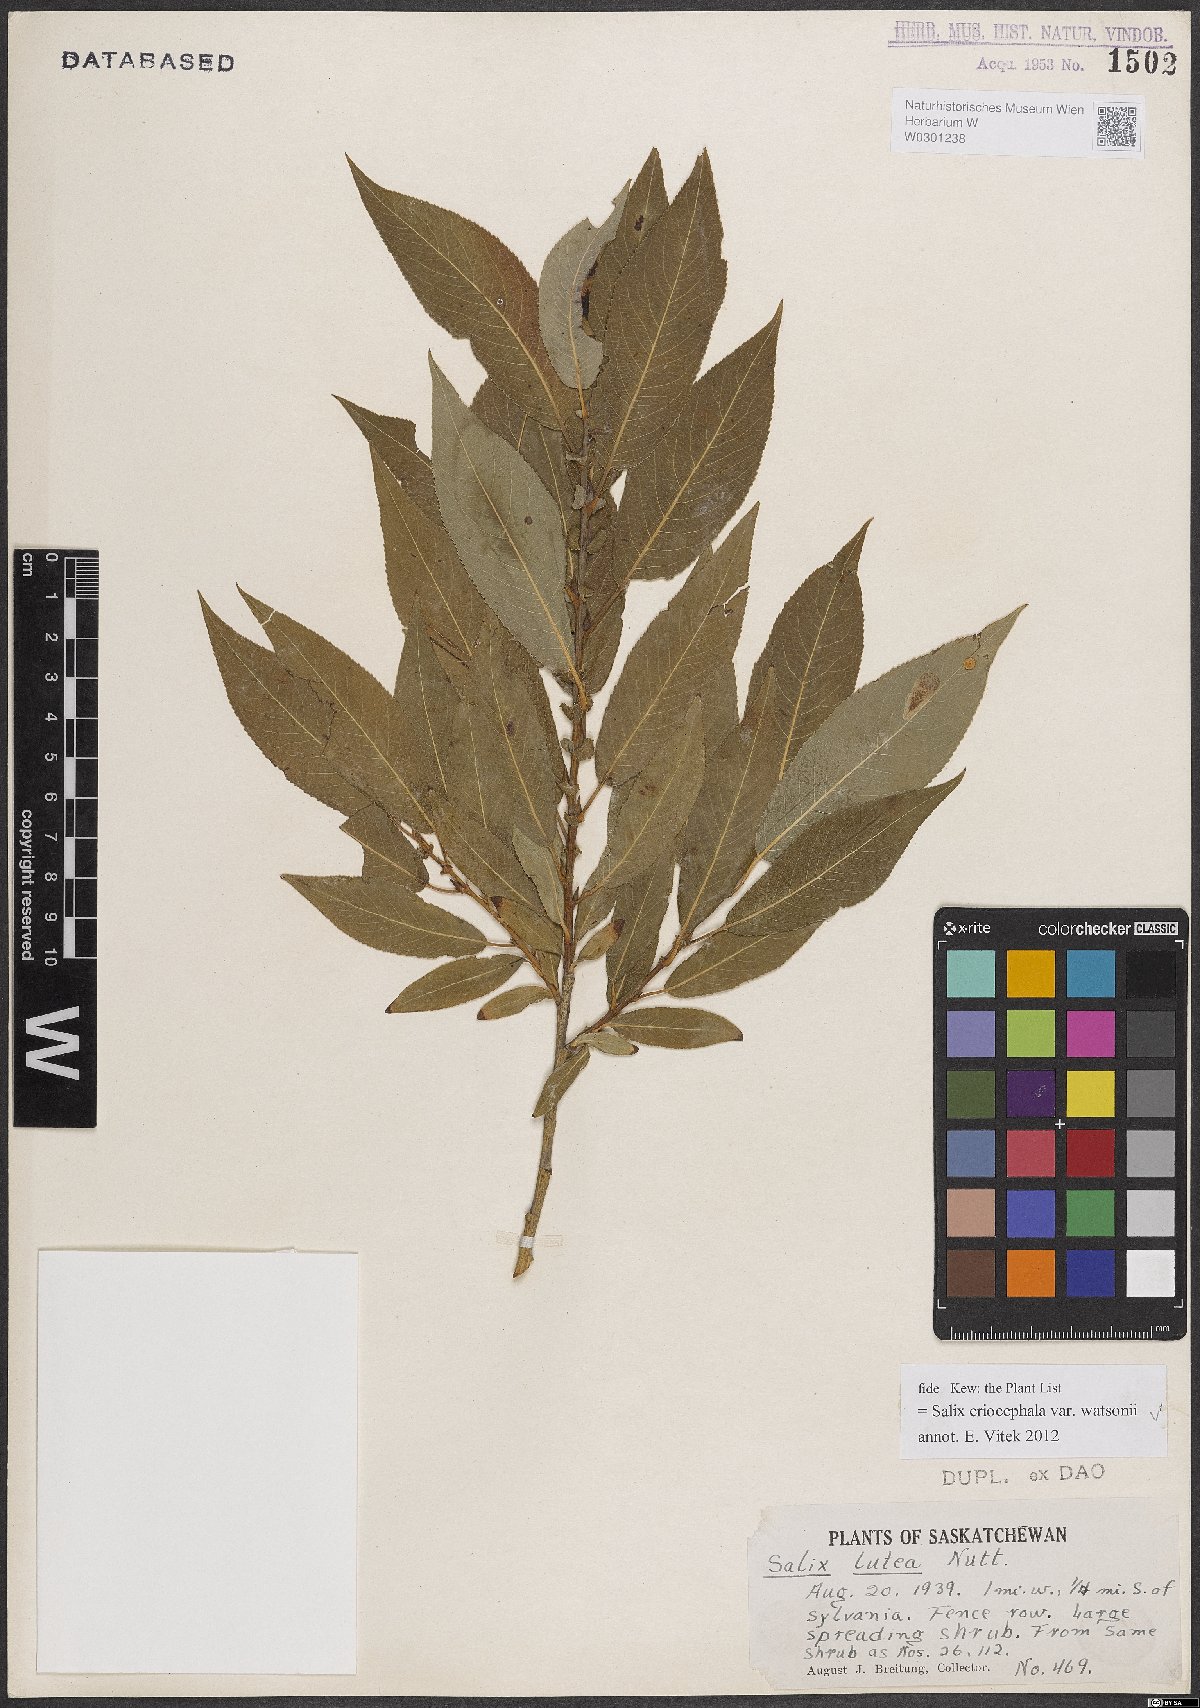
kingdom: Plantae
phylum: Tracheophyta
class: Magnoliopsida
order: Malpighiales
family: Salicaceae
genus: Salix
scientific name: Salix lutea
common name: Yellow willow
